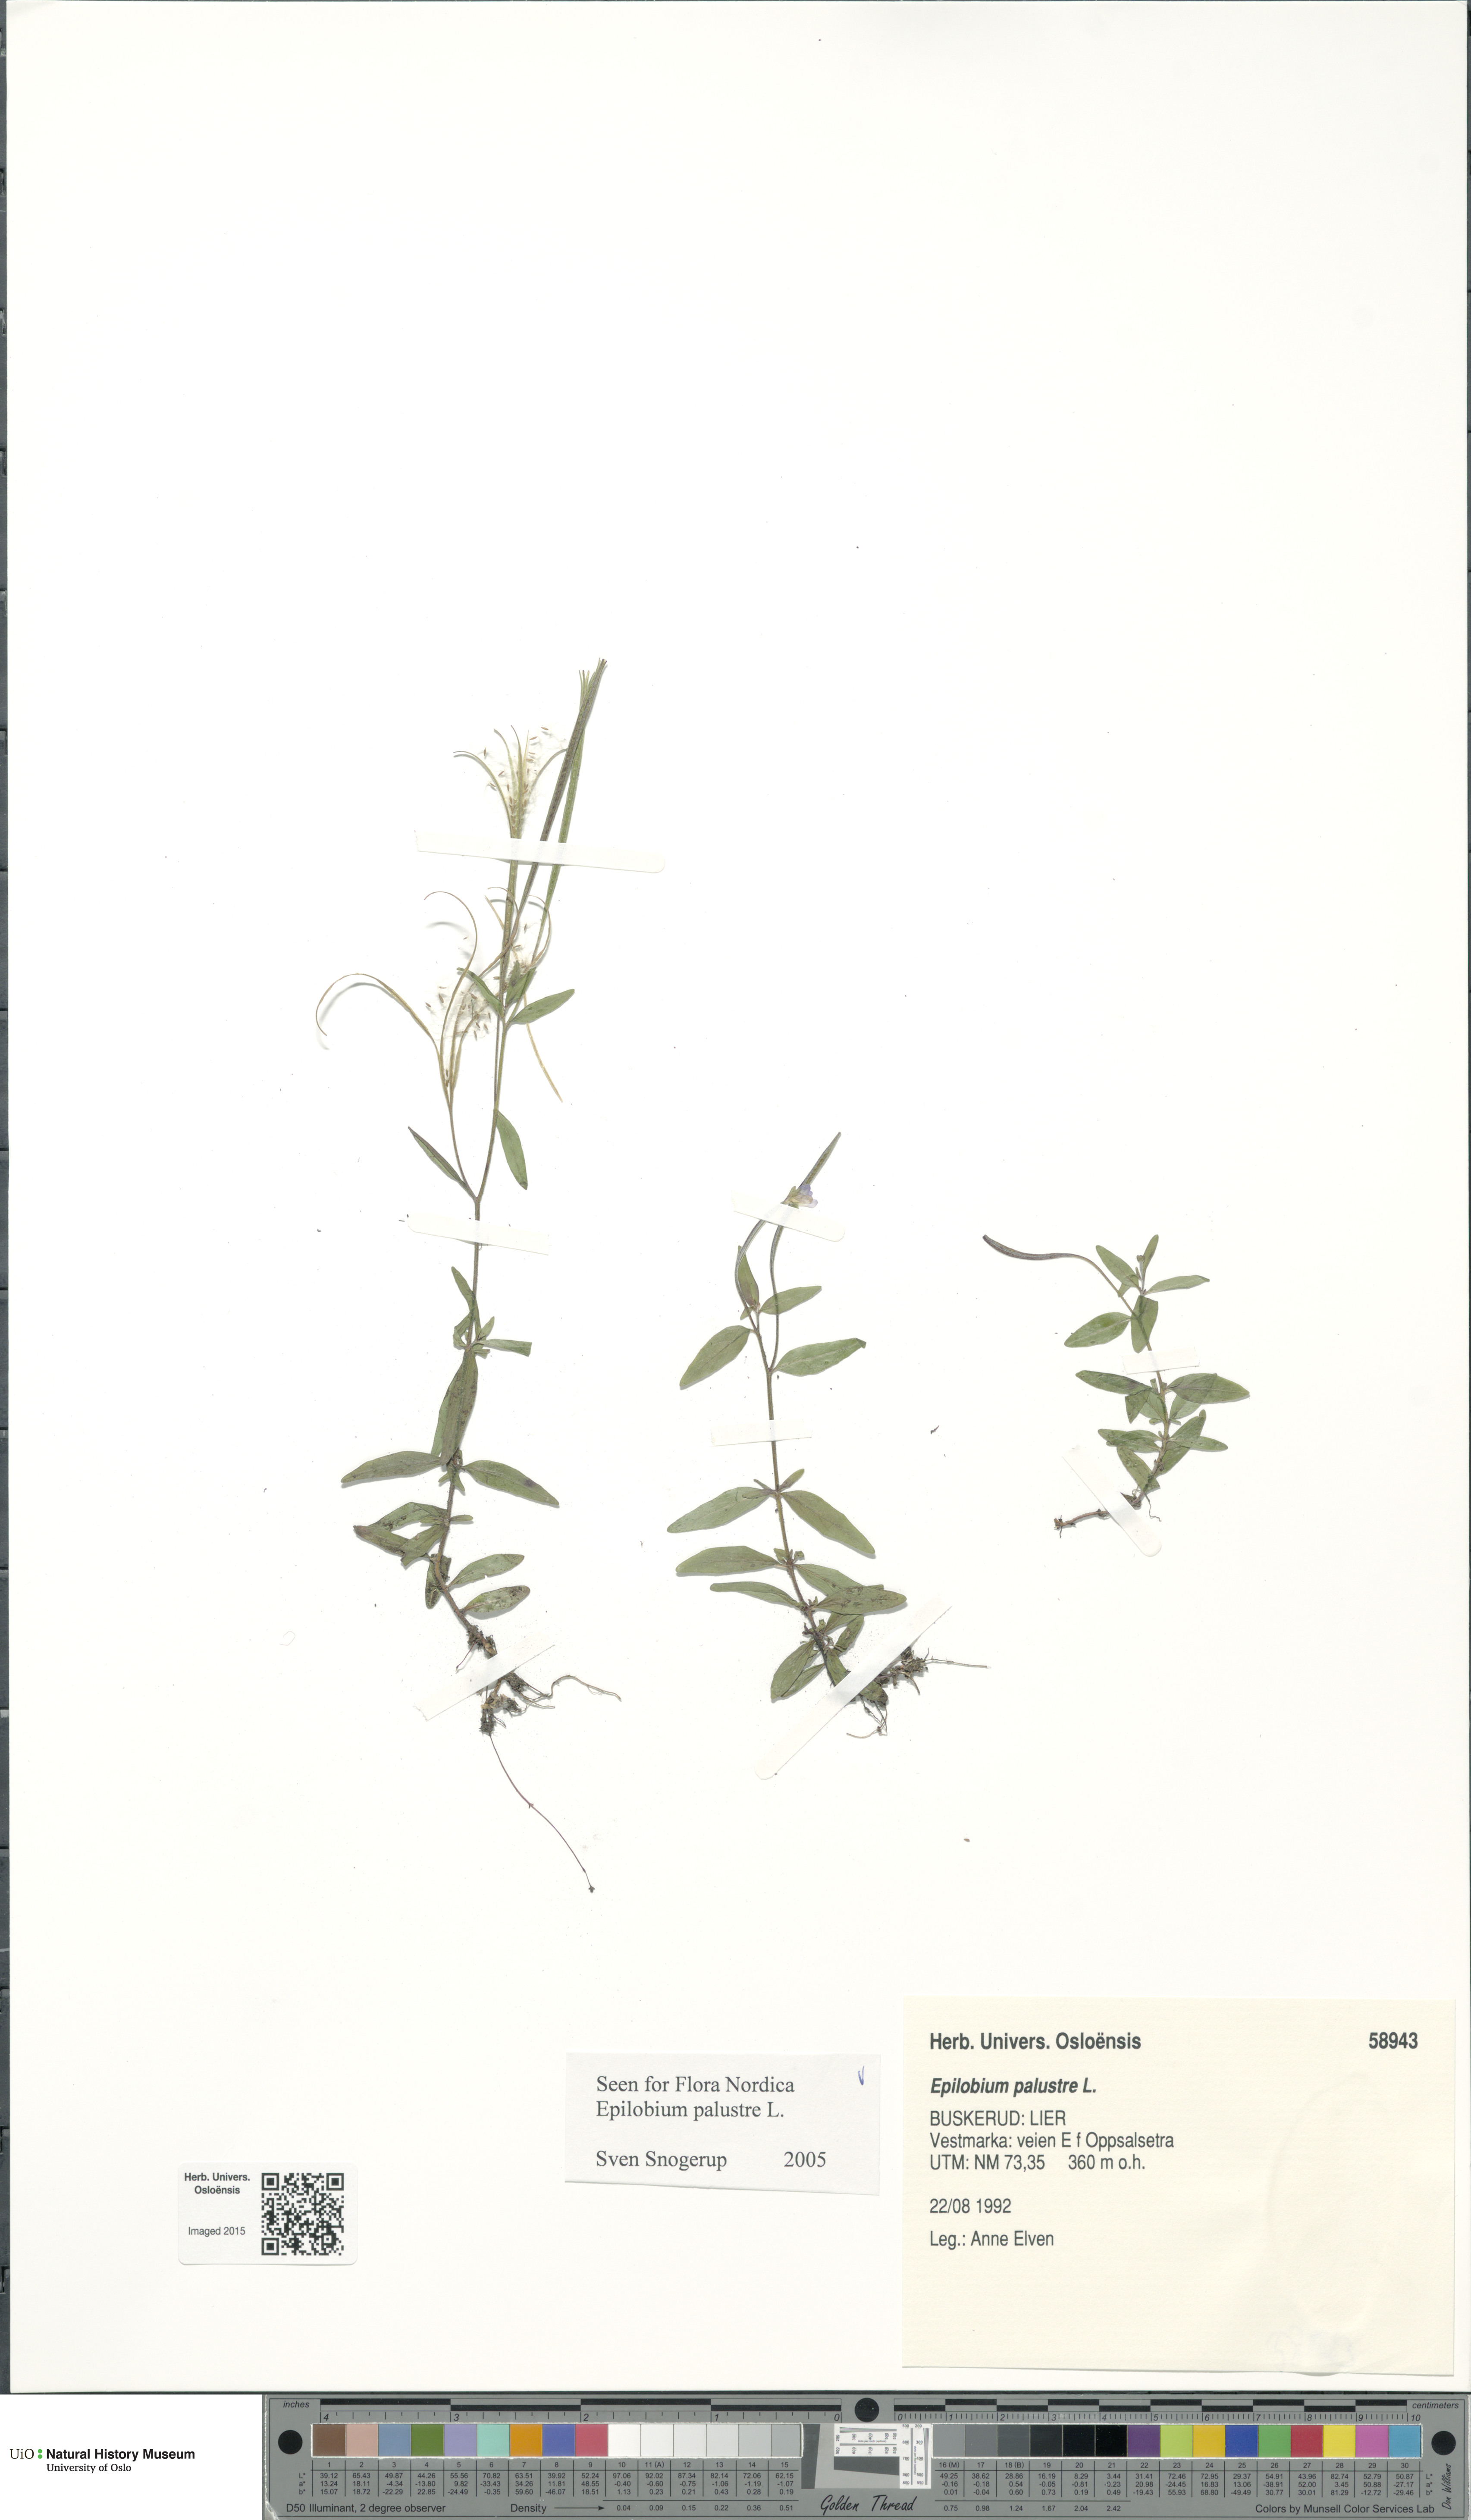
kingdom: Plantae
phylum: Tracheophyta
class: Magnoliopsida
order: Myrtales
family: Onagraceae
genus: Epilobium
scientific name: Epilobium palustre
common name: Marsh willowherb
